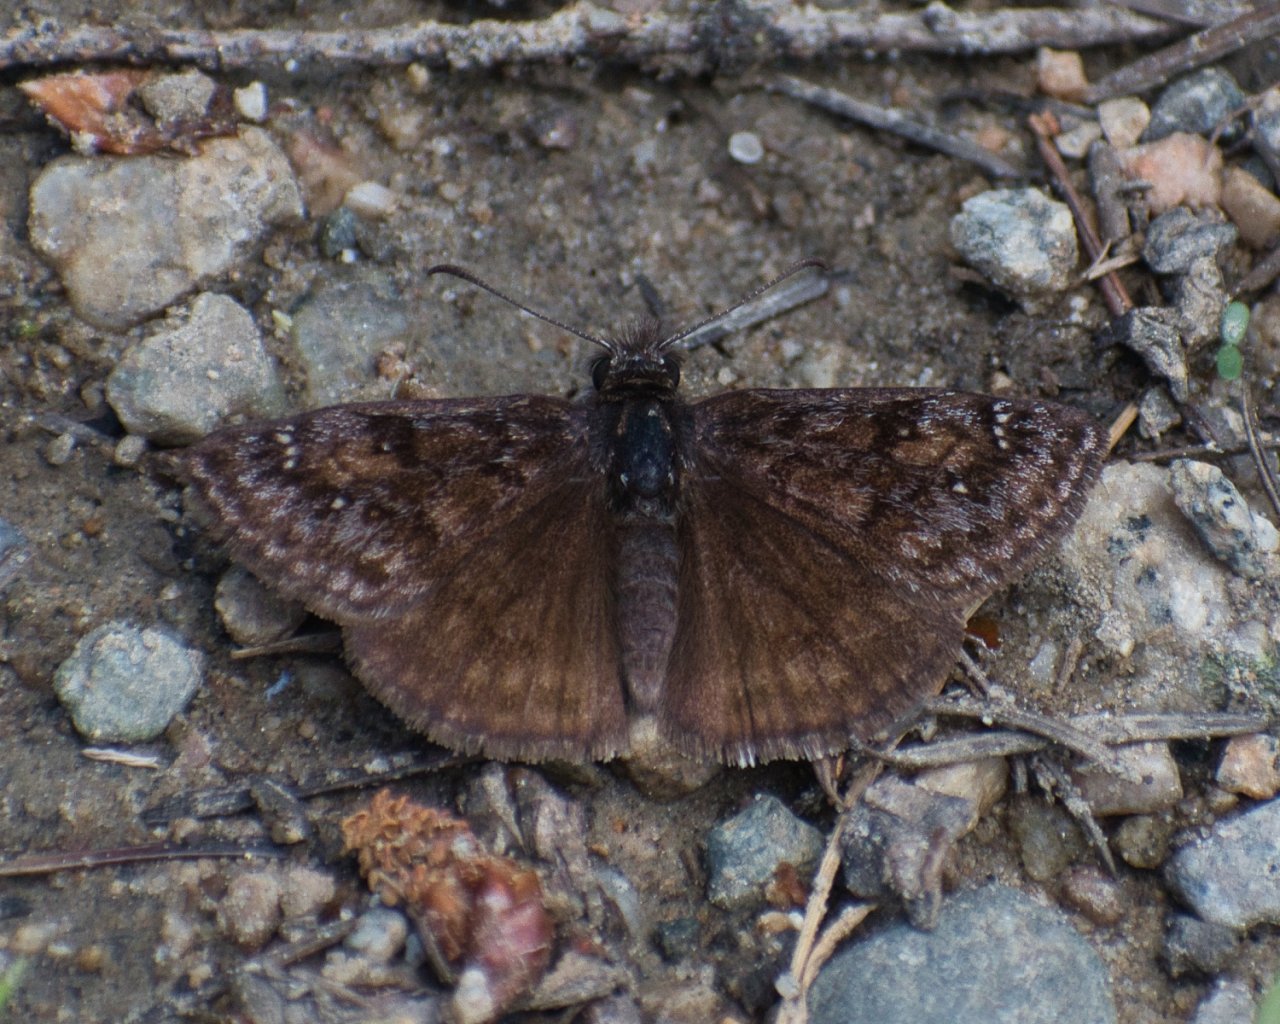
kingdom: Animalia
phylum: Arthropoda
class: Insecta
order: Lepidoptera
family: Hesperiidae
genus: Erynnis
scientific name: Erynnis pacuvius
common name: Pacuvius Duskywing
